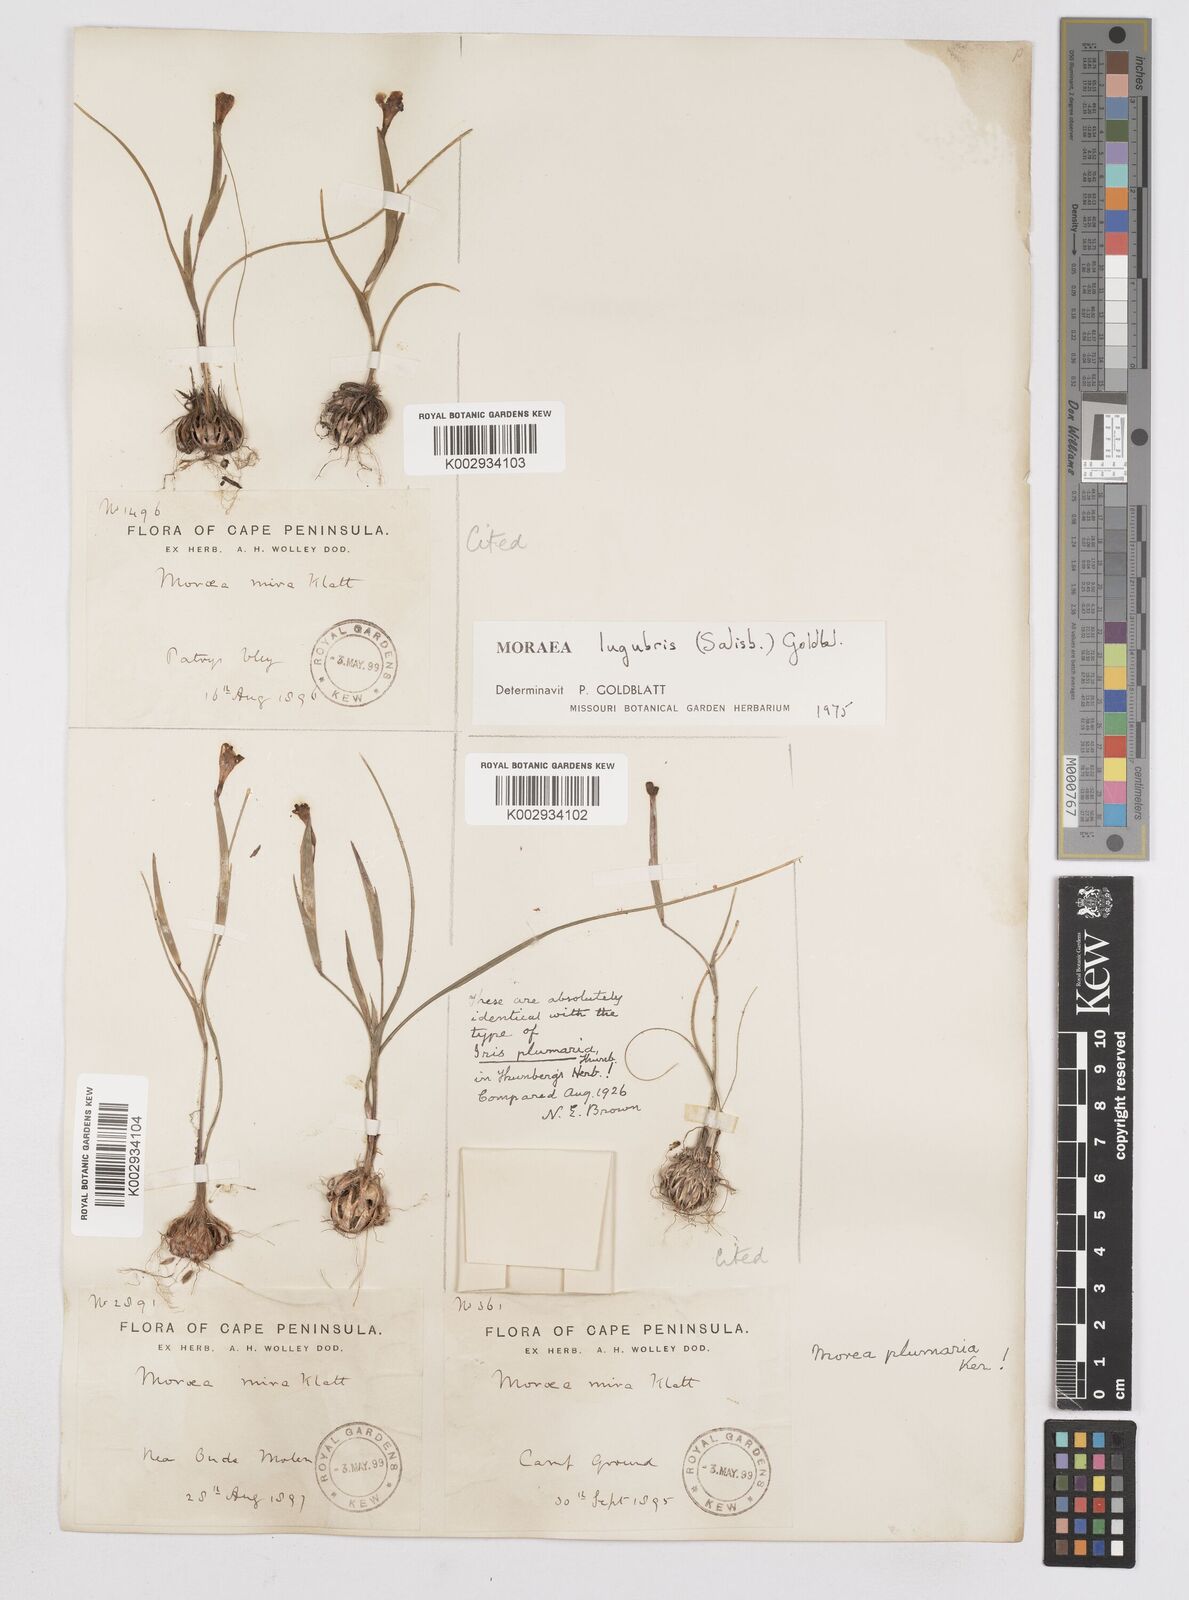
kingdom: Plantae
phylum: Tracheophyta
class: Liliopsida
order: Asparagales
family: Iridaceae
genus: Moraea
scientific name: Moraea lugubris
